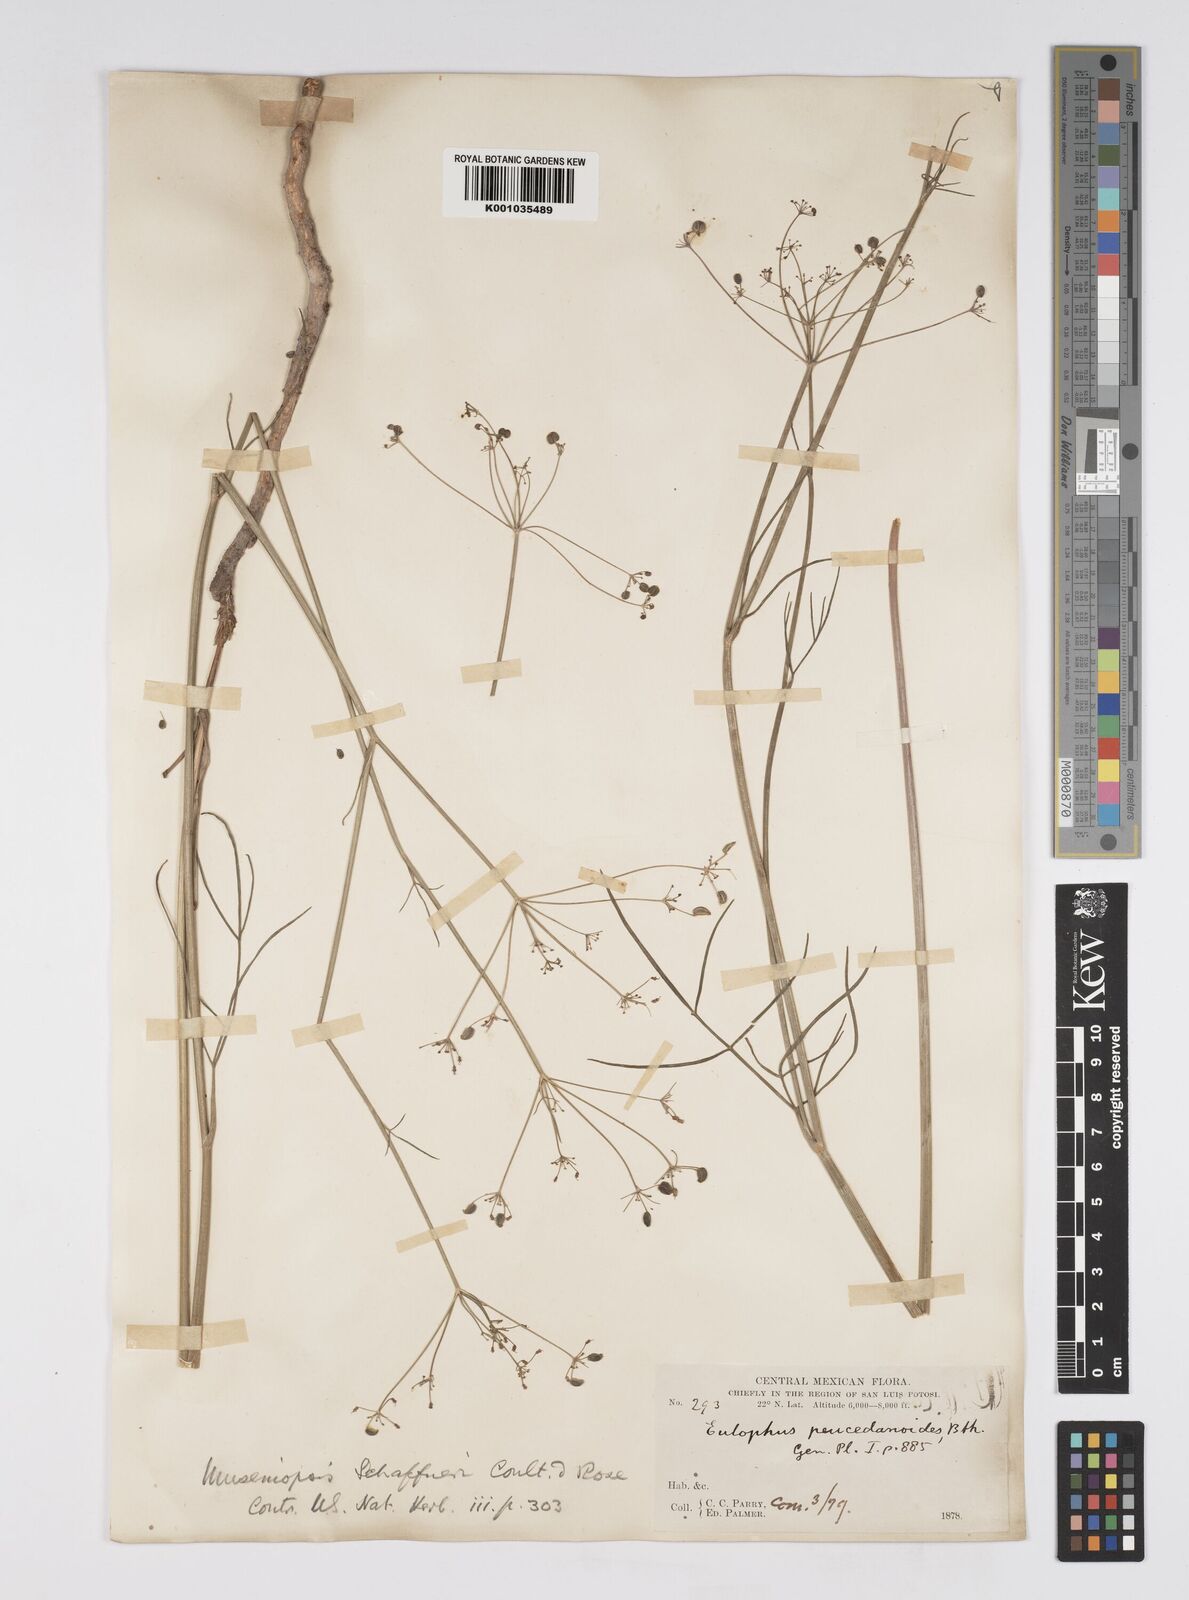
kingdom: Plantae
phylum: Tracheophyta
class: Magnoliopsida
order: Apiales
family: Apiaceae
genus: Donnellsmithia
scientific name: Donnellsmithia juncea
